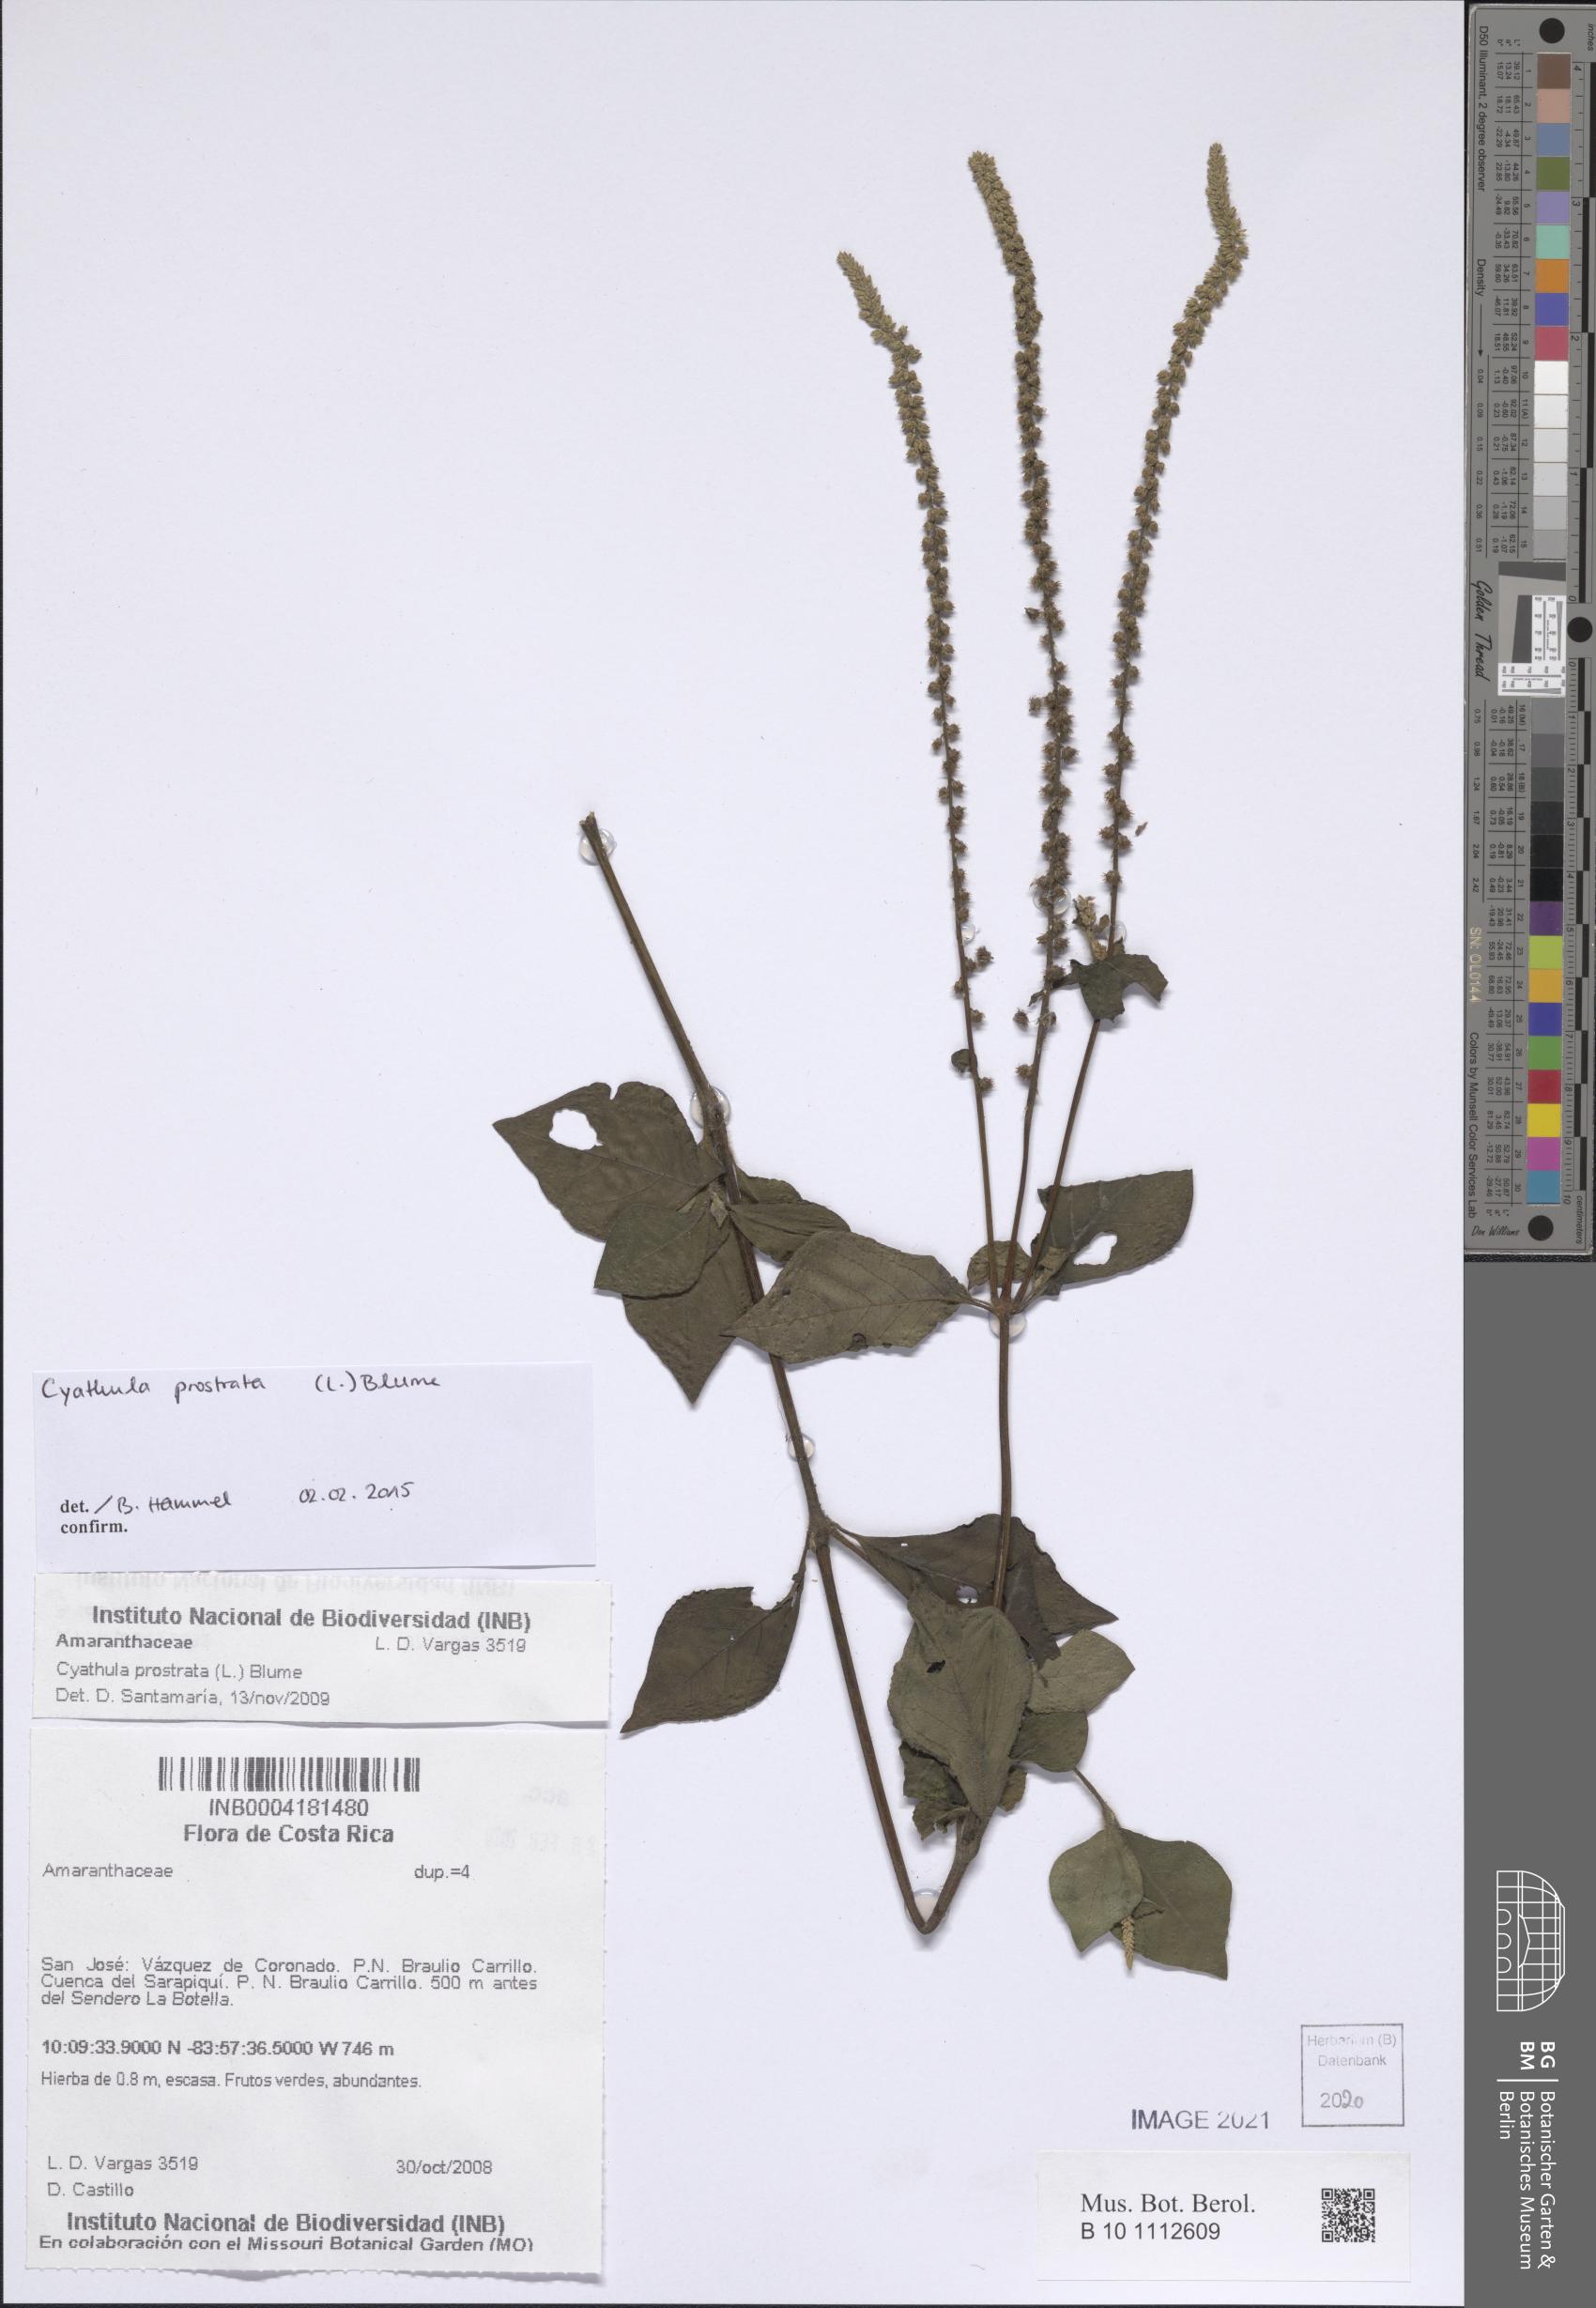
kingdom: Plantae
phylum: Tracheophyta
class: Magnoliopsida
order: Caryophyllales
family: Amaranthaceae
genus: Cyathula
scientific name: Cyathula prostrata
